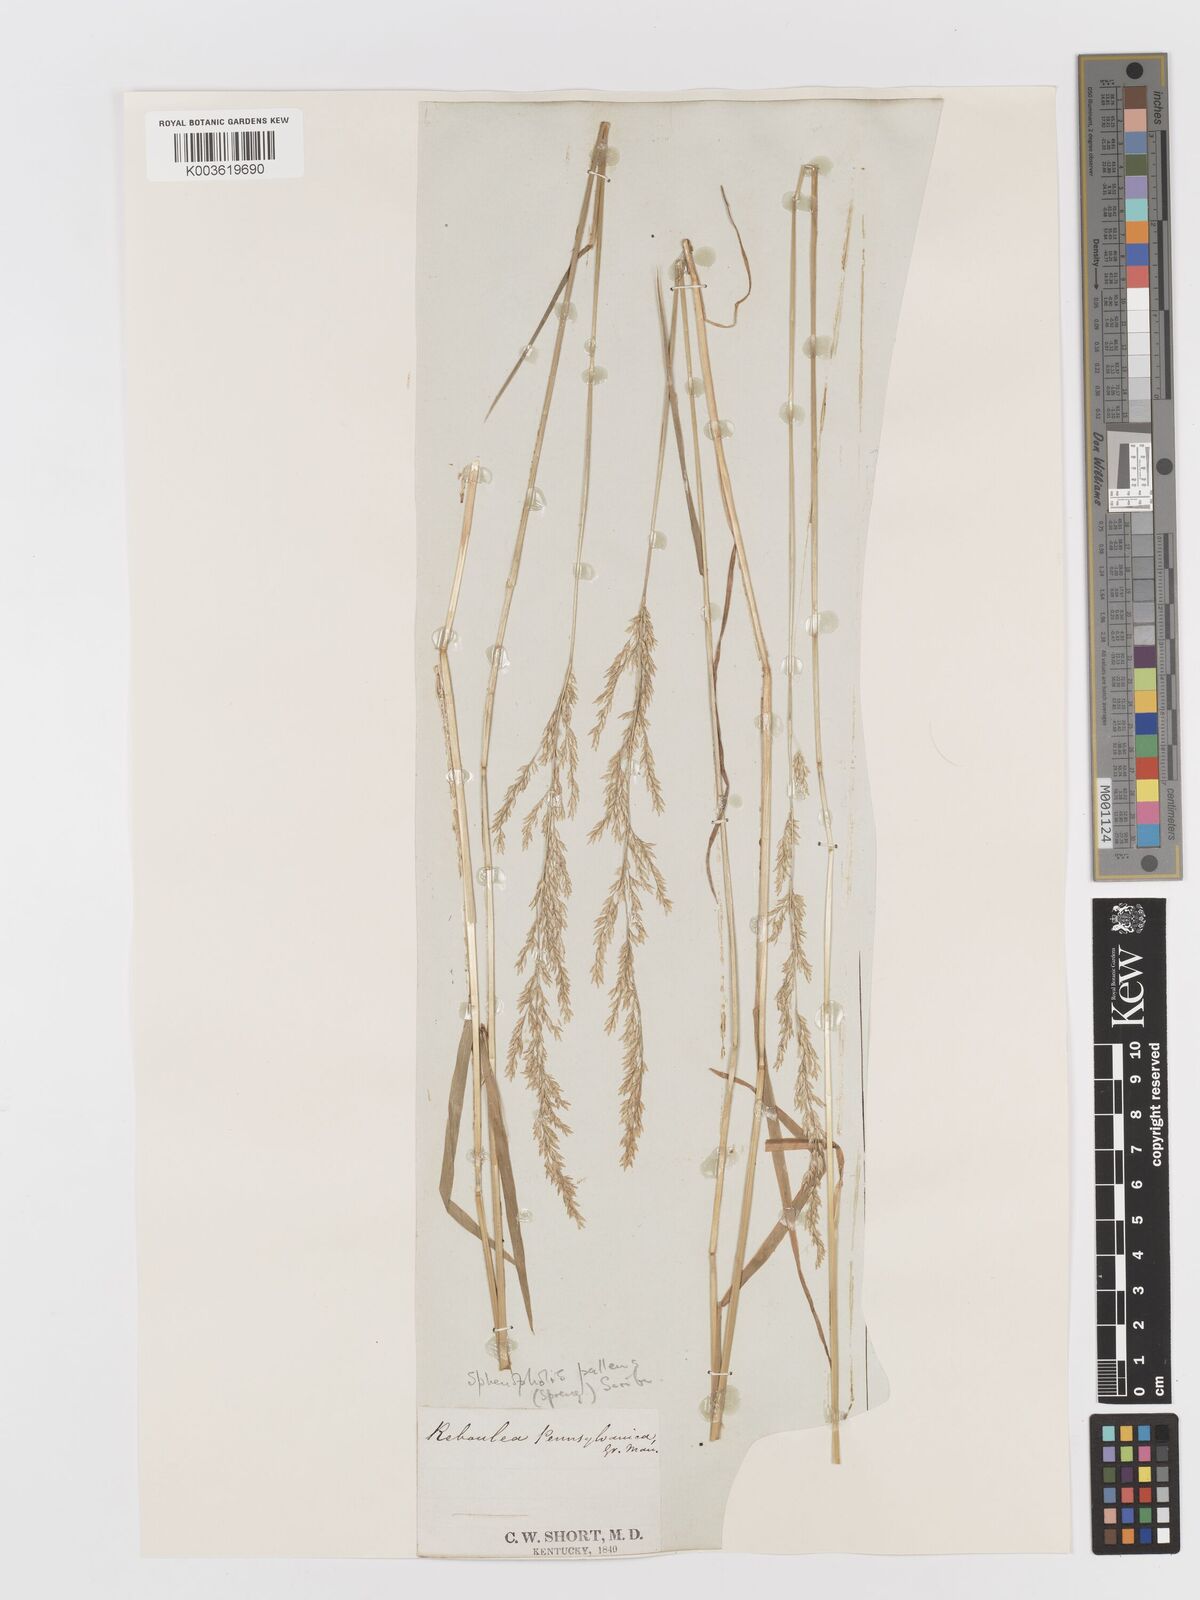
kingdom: Plantae
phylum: Tracheophyta
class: Liliopsida
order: Poales
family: Poaceae
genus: Sphenopholis
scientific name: Sphenopholis obtusata
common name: Prairie grass
